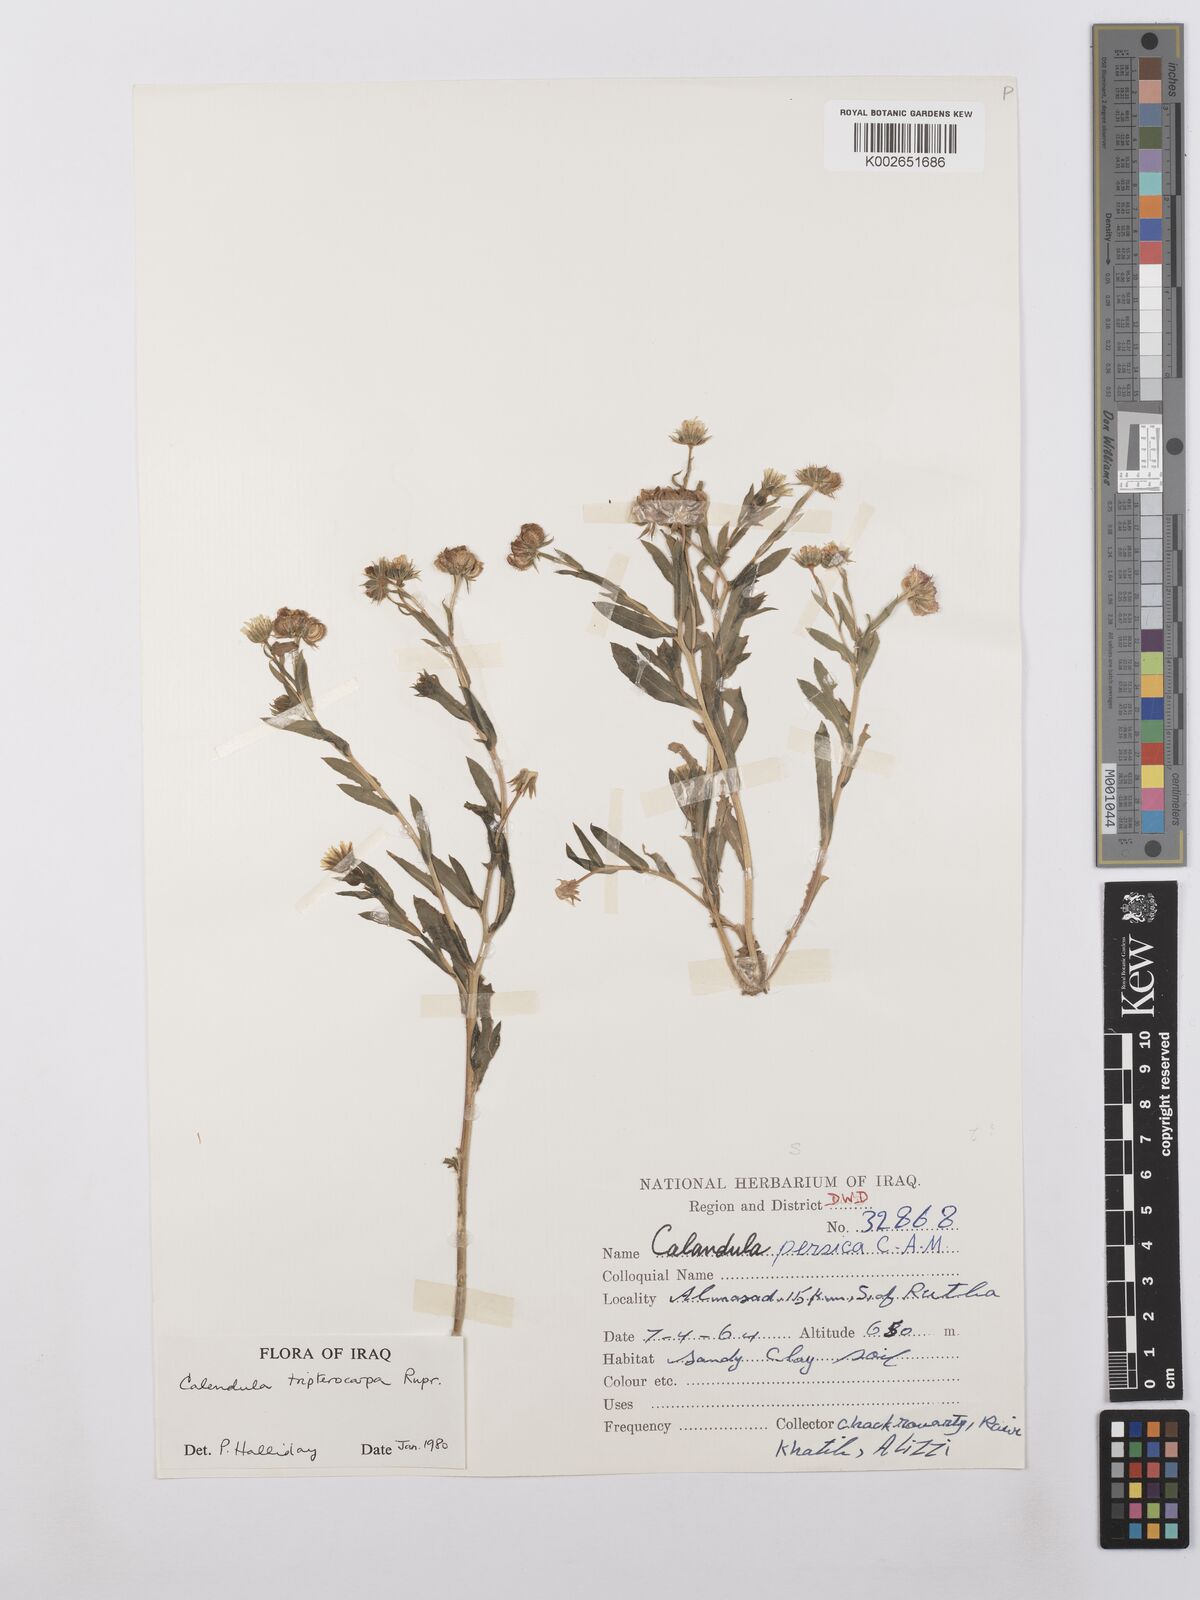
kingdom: Plantae
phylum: Tracheophyta
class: Magnoliopsida
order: Asterales
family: Asteraceae
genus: Calendula
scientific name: Calendula tripterocarpa
